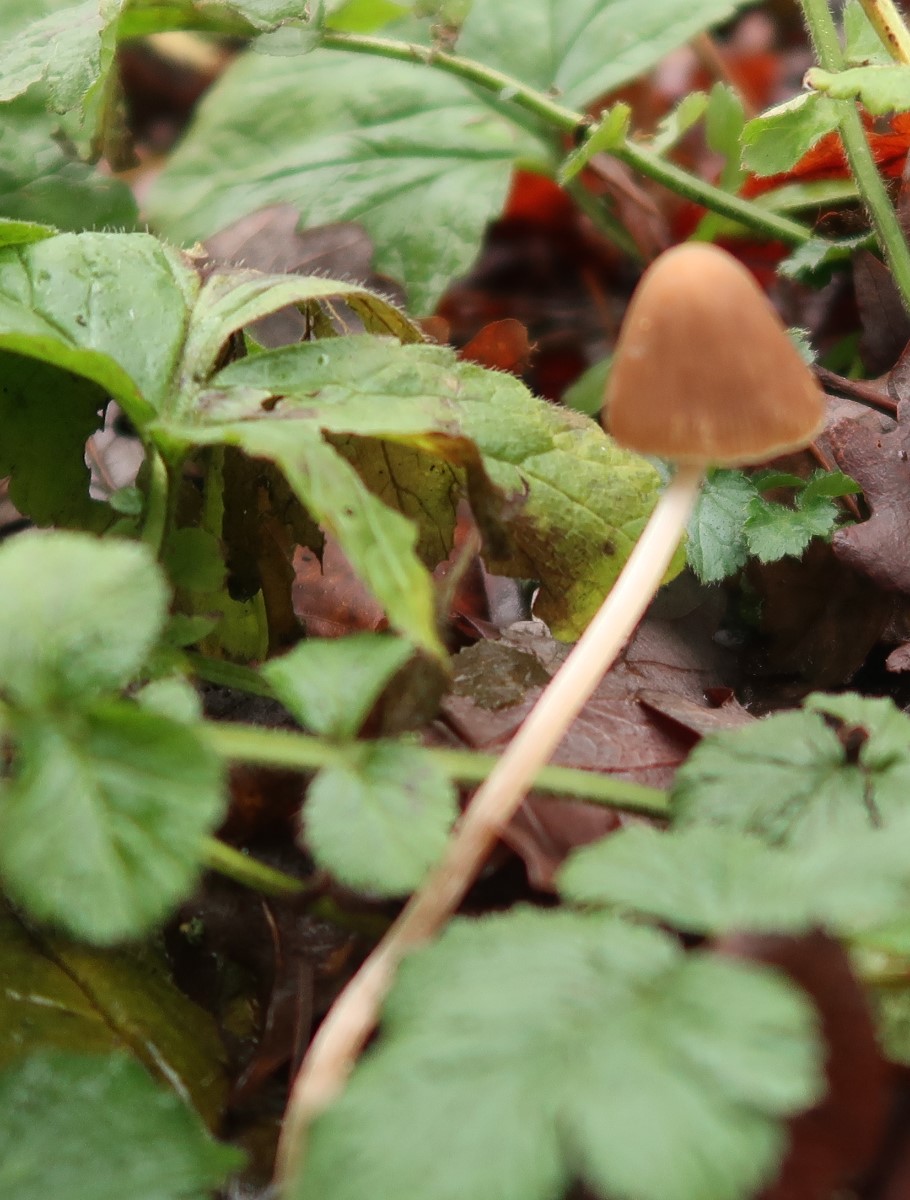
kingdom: Fungi
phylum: Basidiomycota
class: Agaricomycetes
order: Agaricales
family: Psathyrellaceae
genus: Parasola
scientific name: Parasola conopilea
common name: kegle-hjulhat
